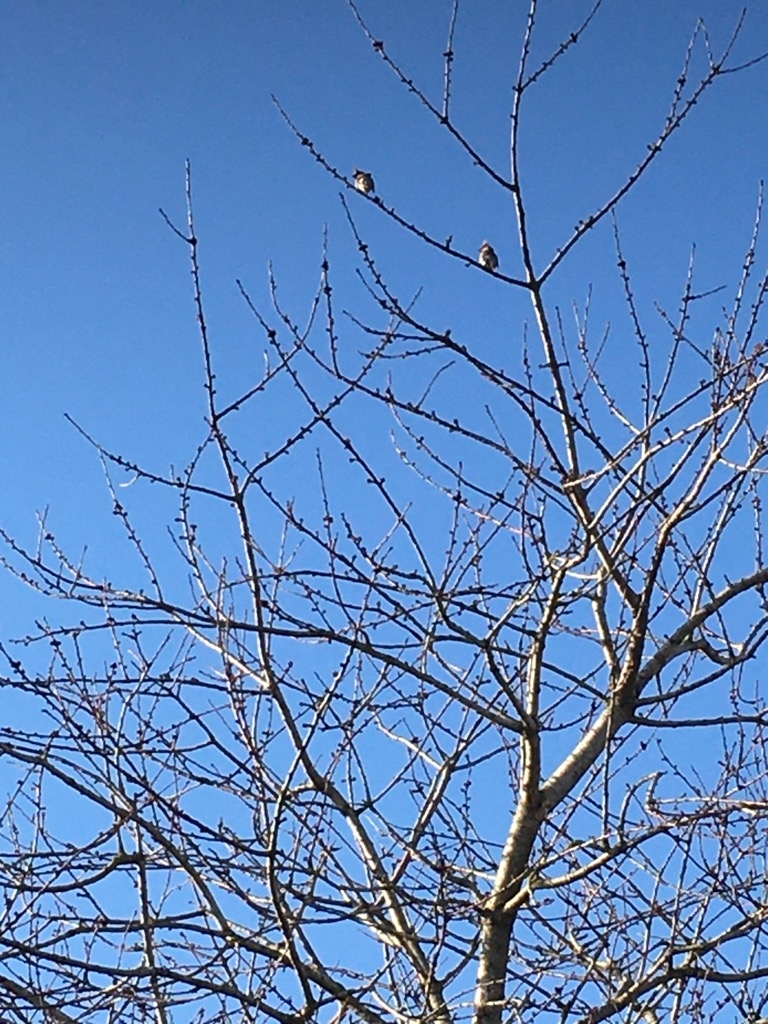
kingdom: Animalia
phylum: Chordata
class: Aves
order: Passeriformes
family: Bombycillidae
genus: Bombycilla
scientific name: Bombycilla garrulus
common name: Silkehale
